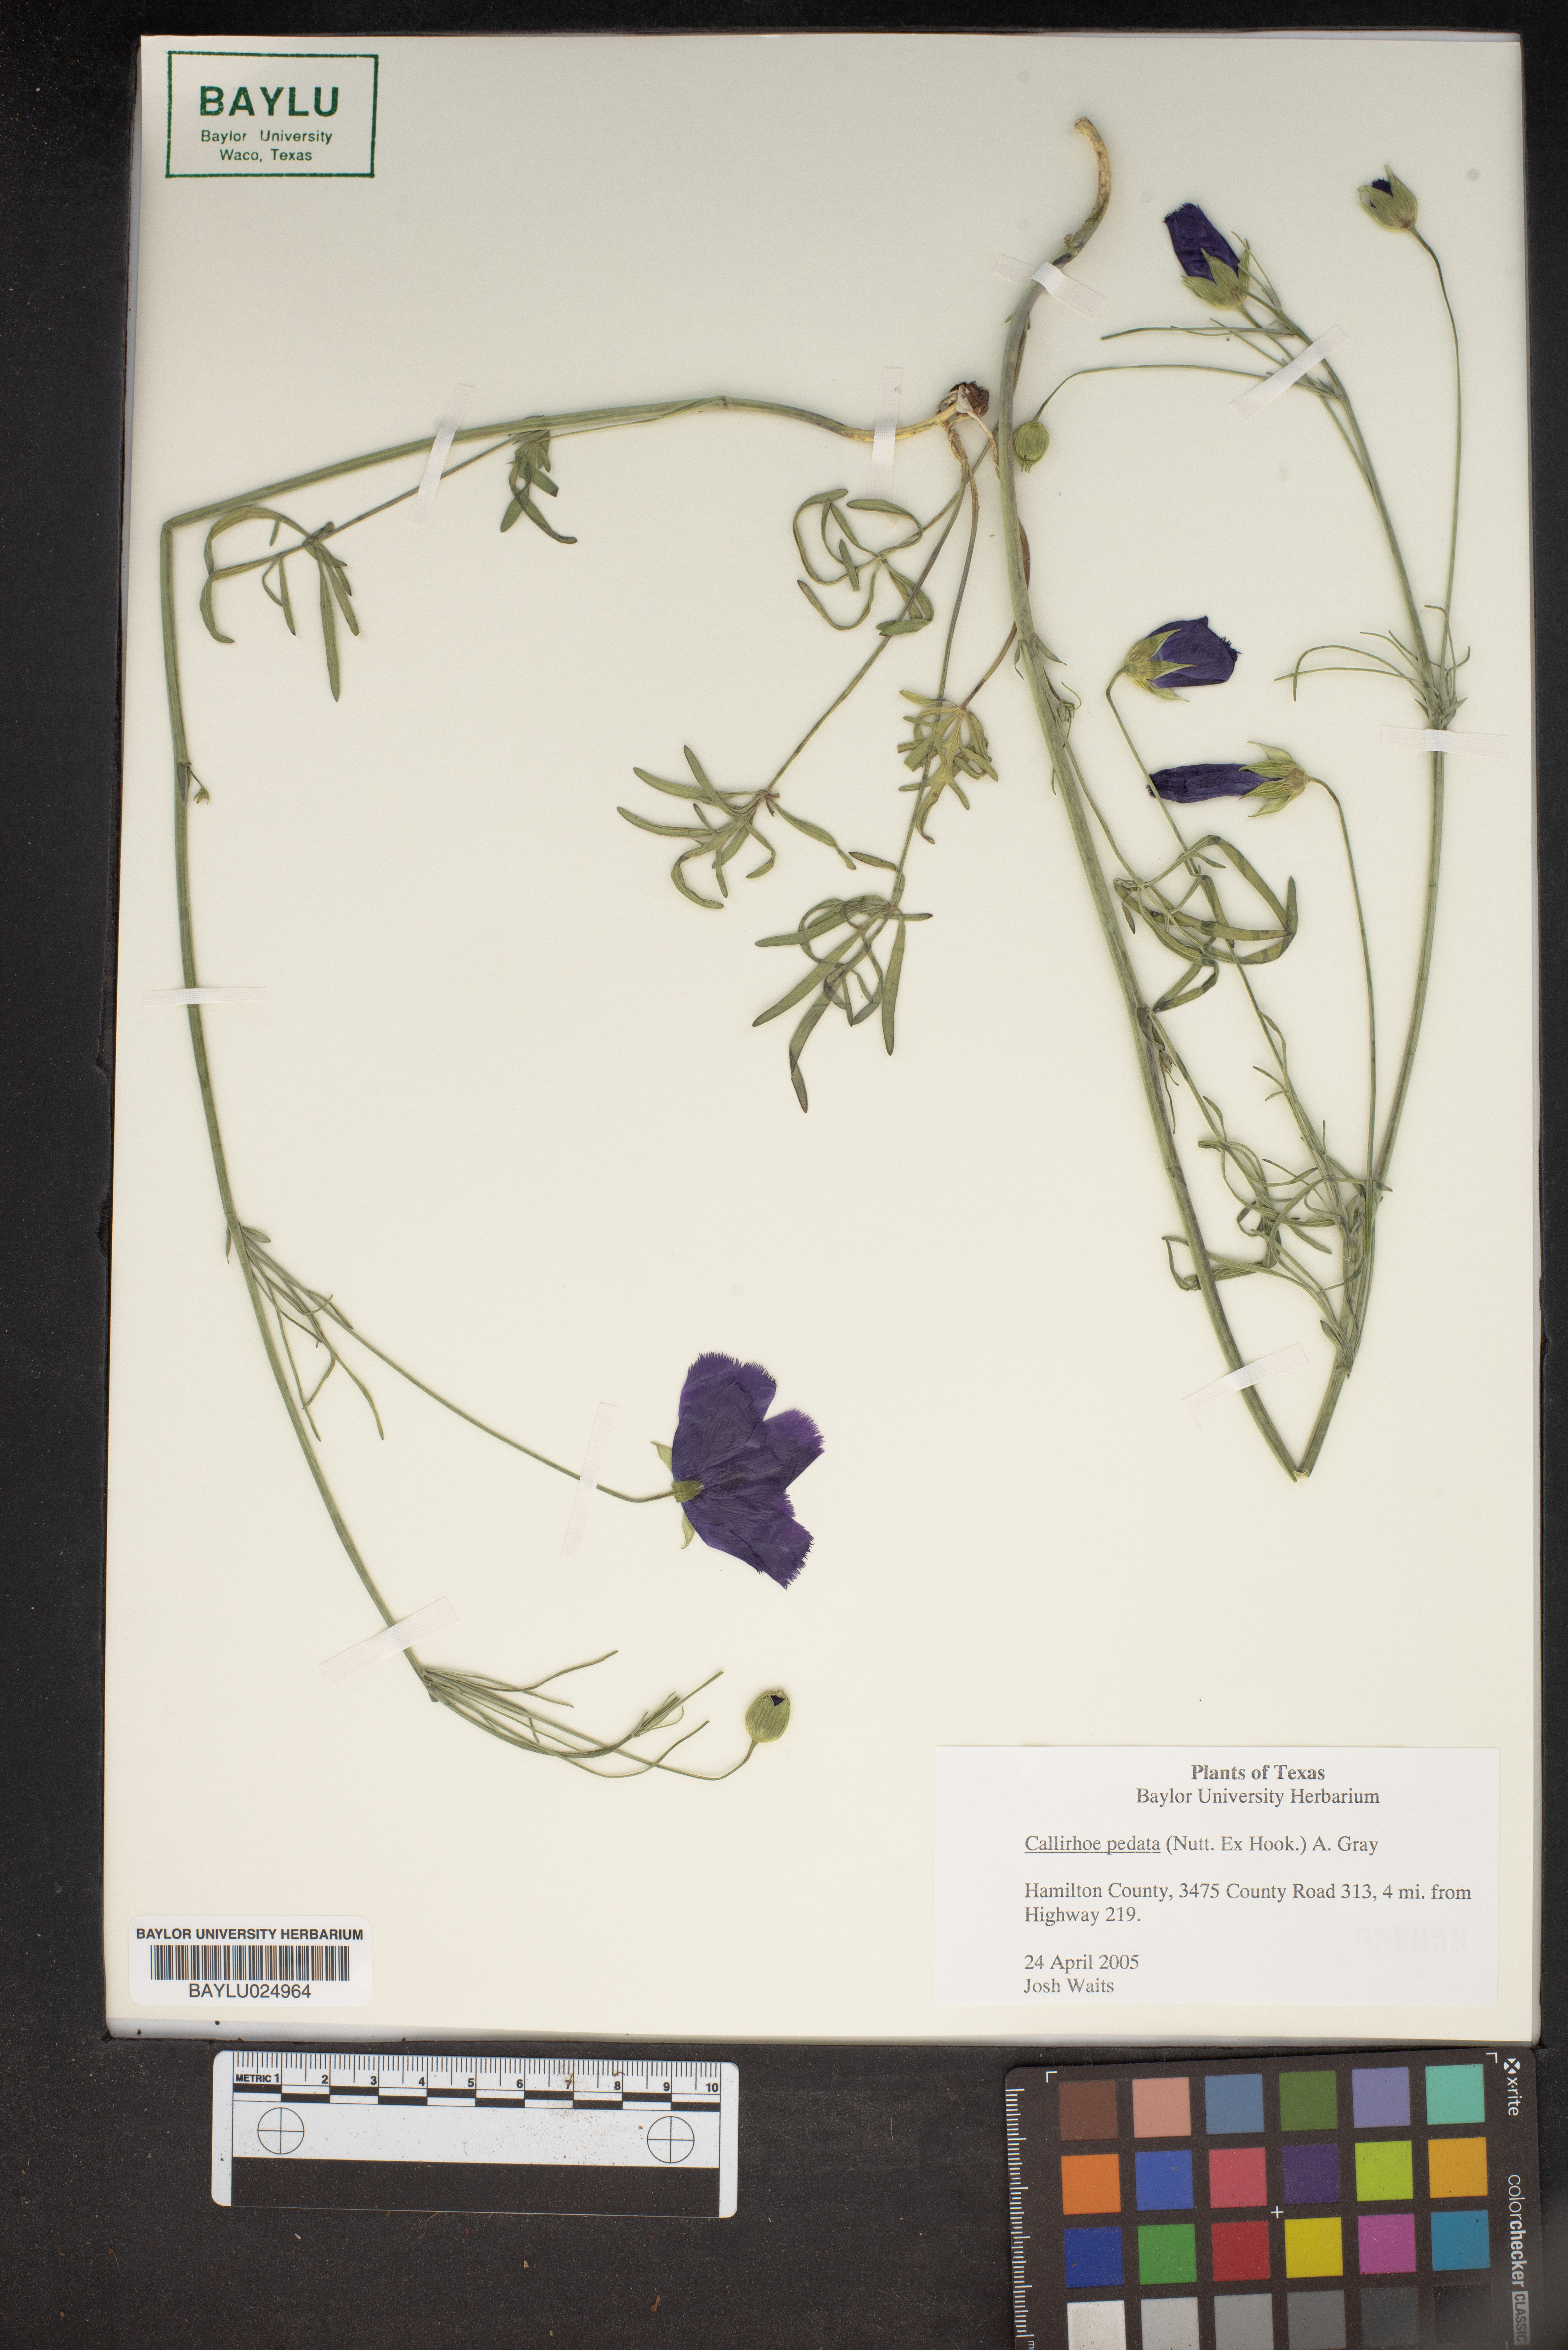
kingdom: Plantae
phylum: Tracheophyta
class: Magnoliopsida
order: Malvales
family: Malvaceae
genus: Callirhoe
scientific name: Callirhoe pedata
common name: Finger poppy-mallow
